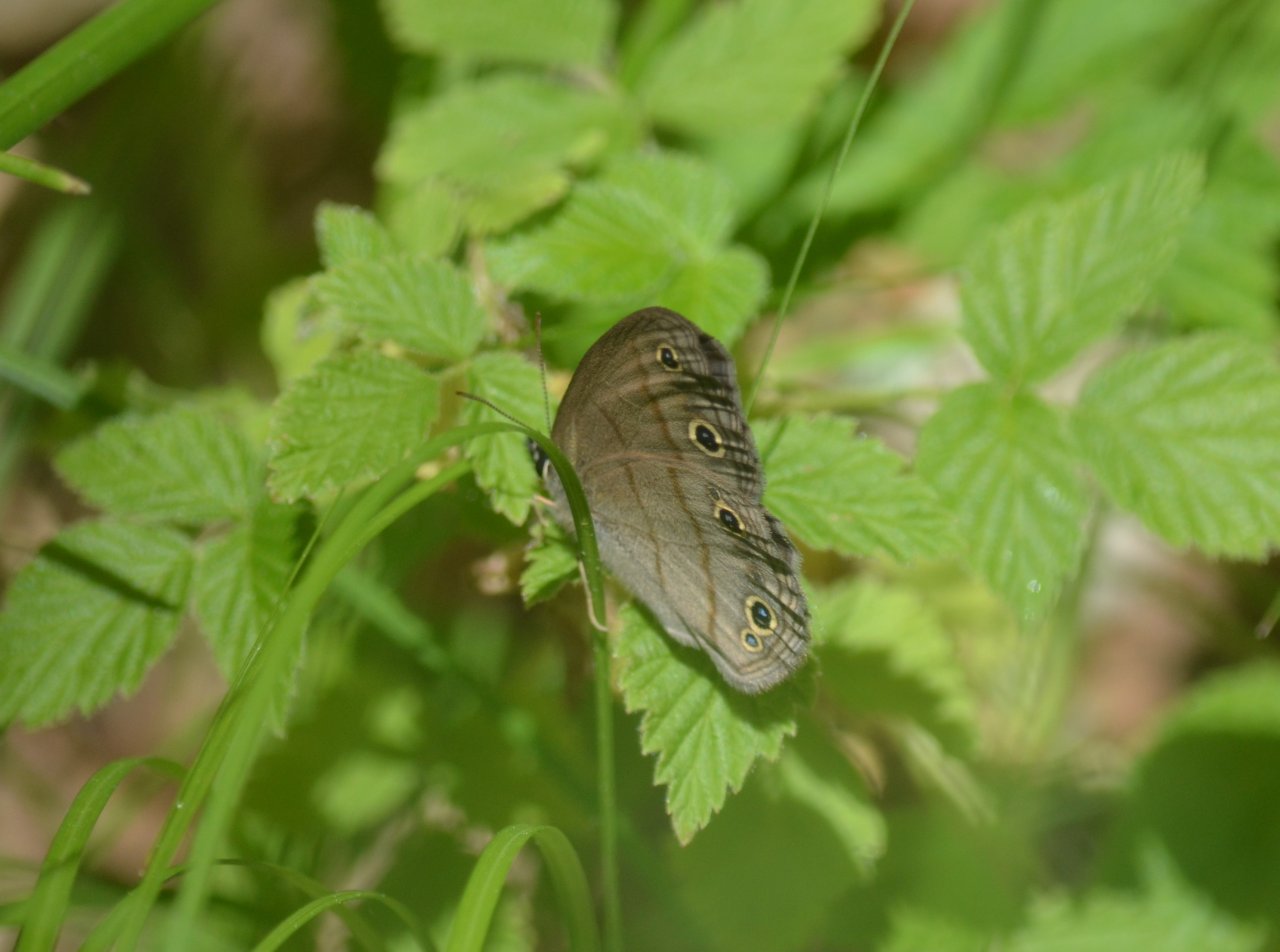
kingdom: Animalia
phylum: Arthropoda
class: Insecta
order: Lepidoptera
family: Nymphalidae
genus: Euptychia
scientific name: Euptychia cymela
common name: Little Wood Satyr
